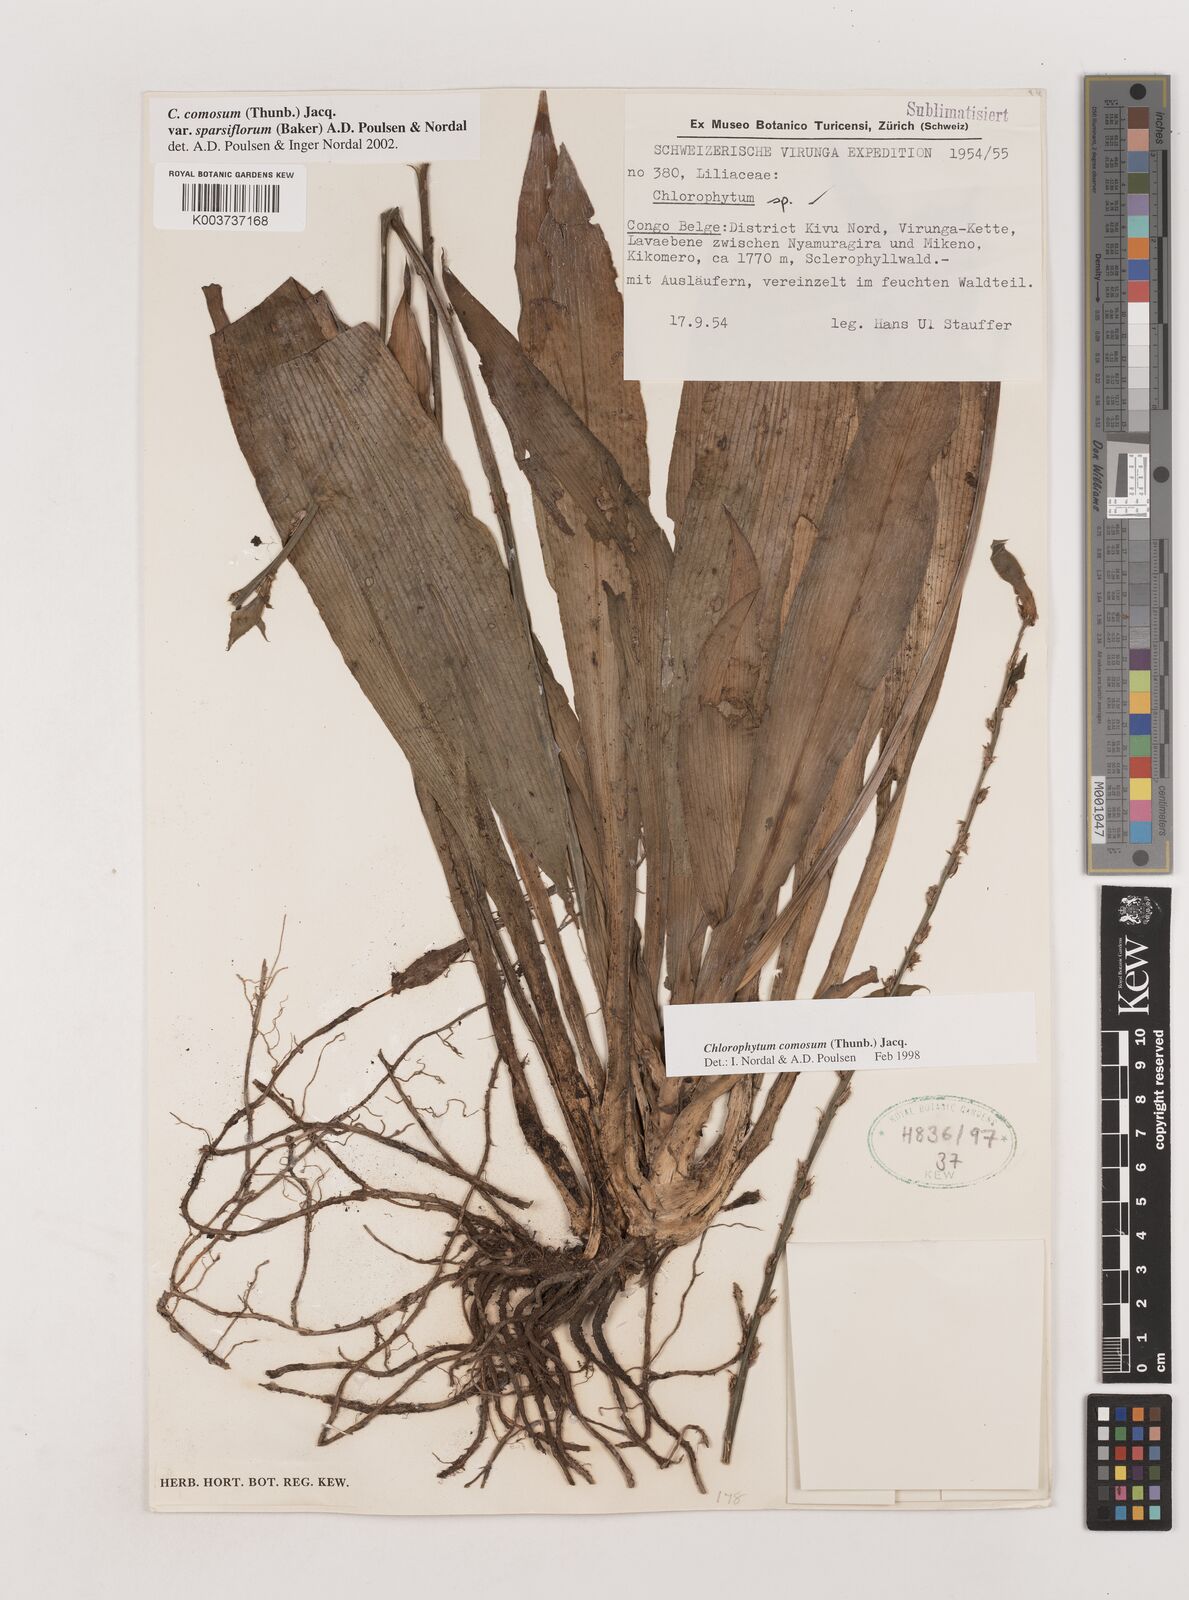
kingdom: Plantae
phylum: Tracheophyta
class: Liliopsida
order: Asparagales
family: Asparagaceae
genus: Chlorophytum
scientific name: Chlorophytum sparsiflorum
